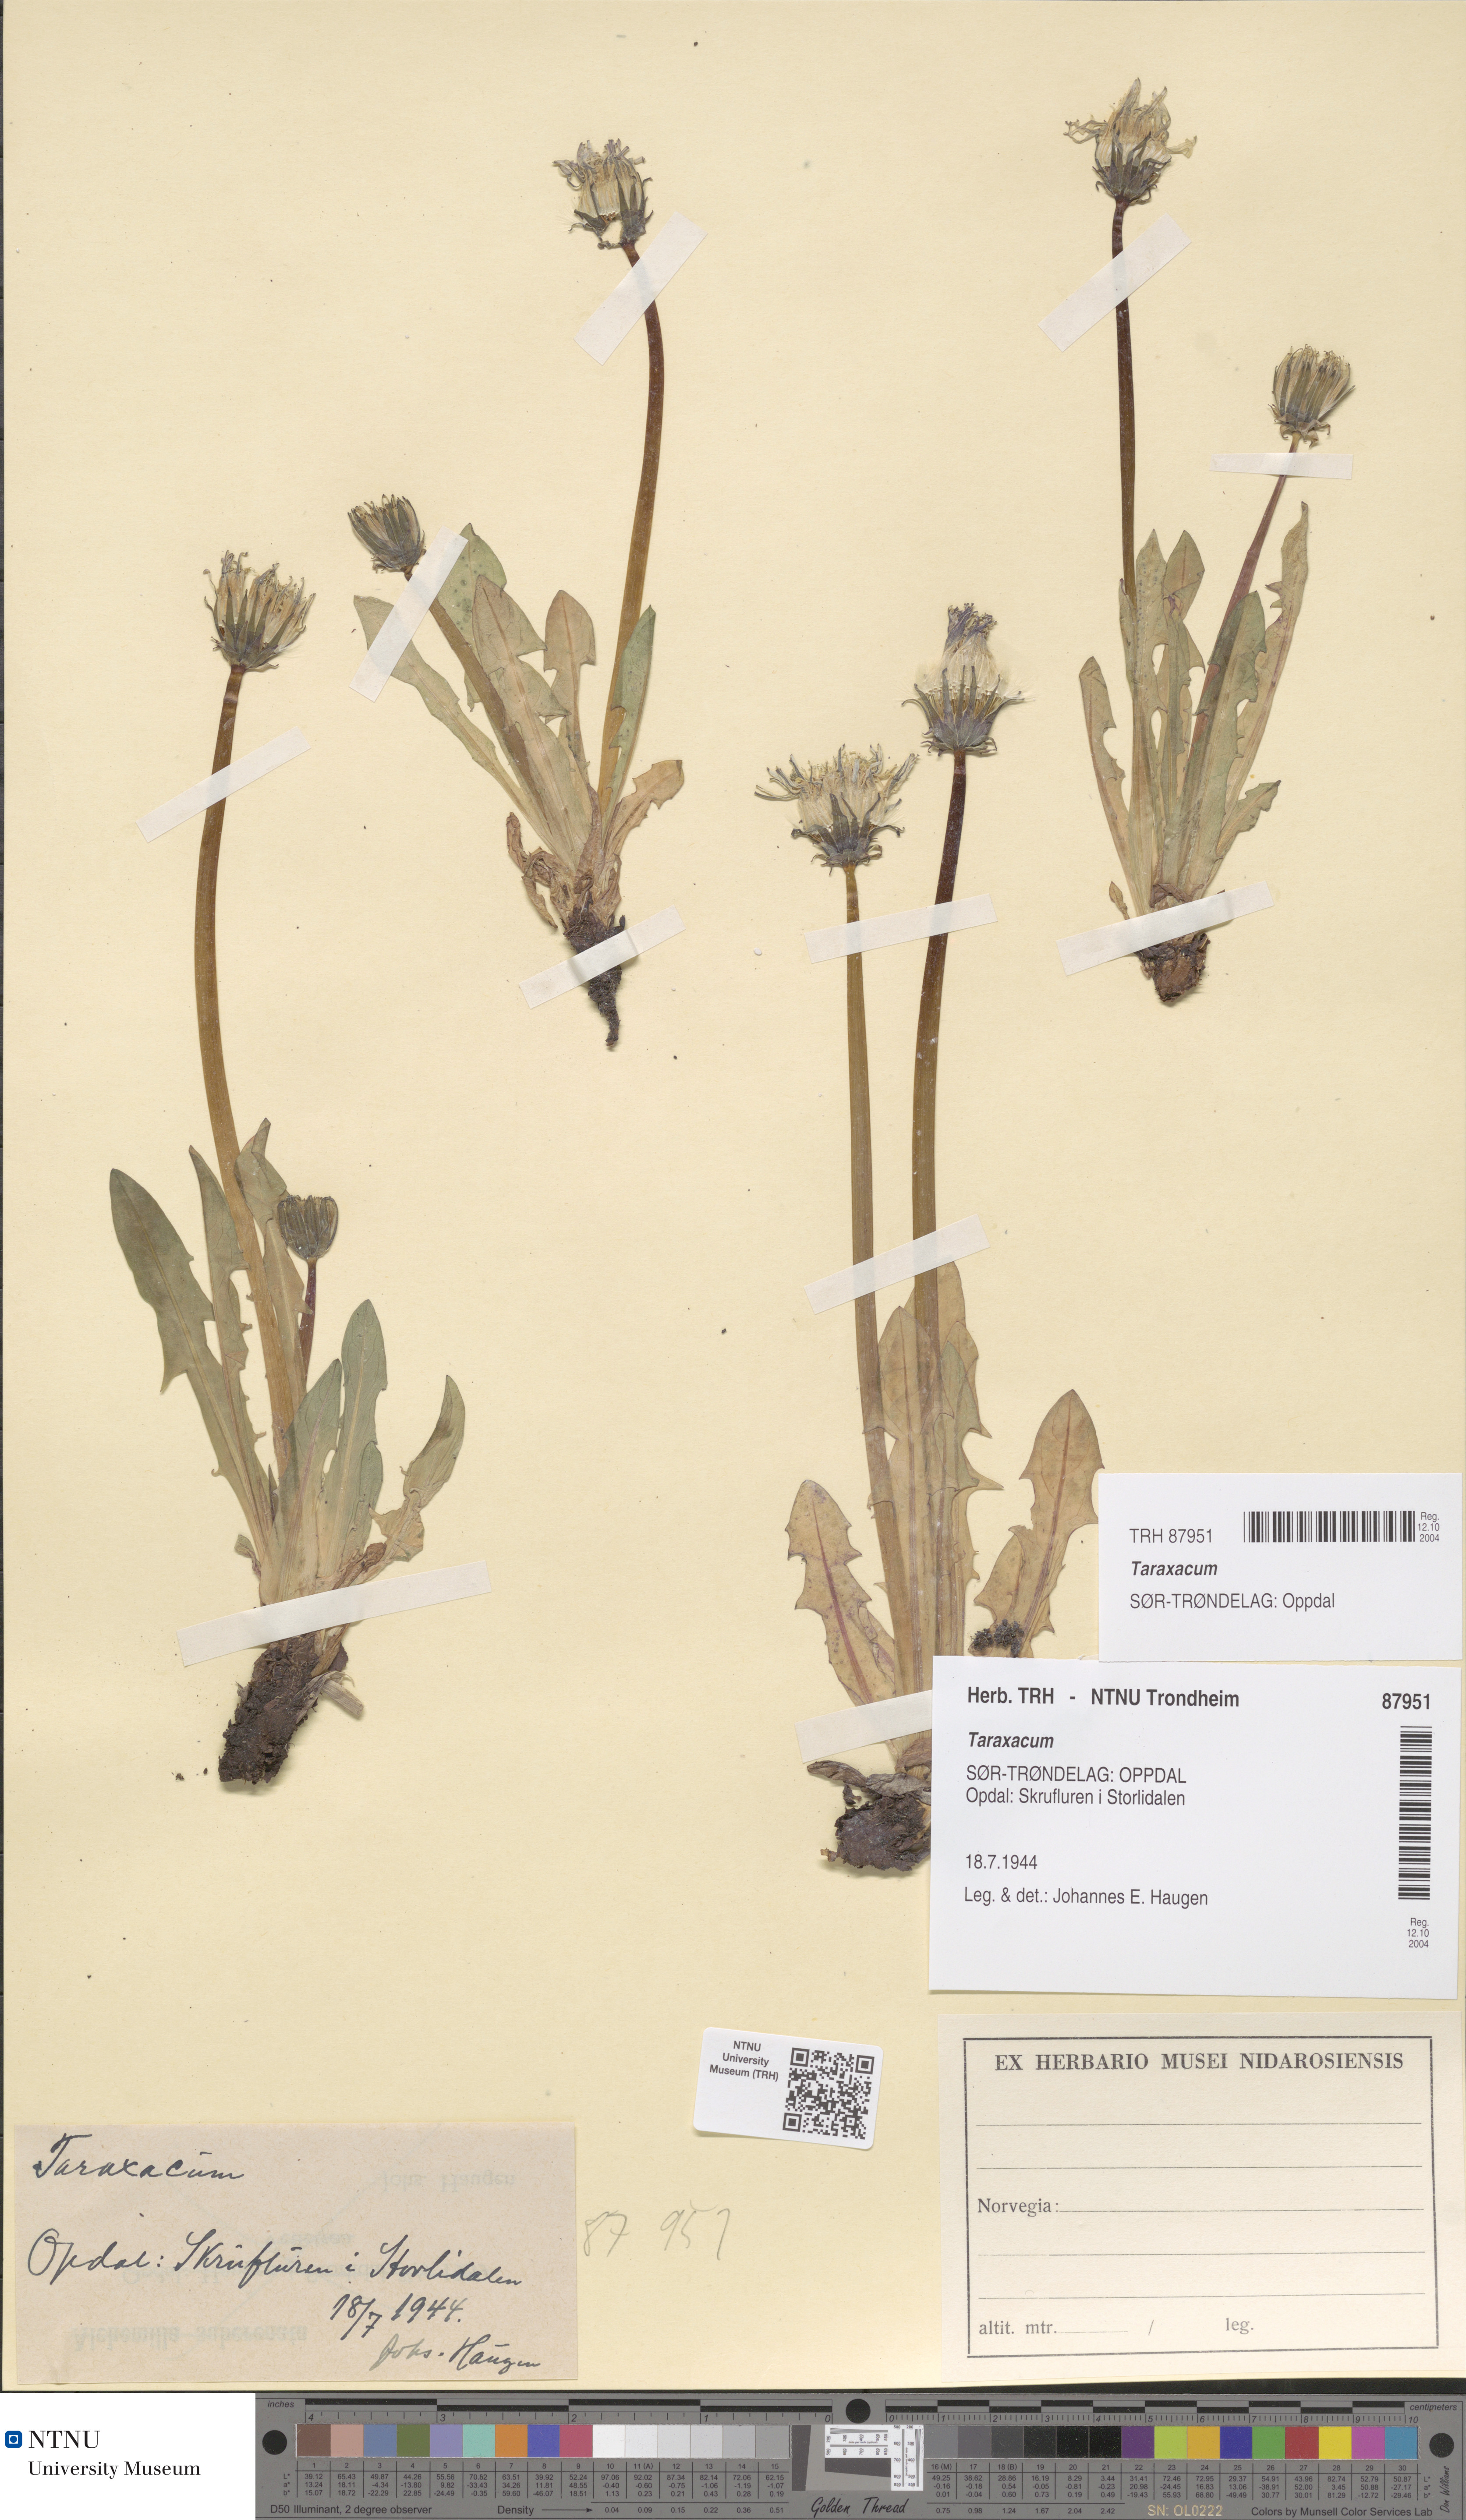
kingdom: Plantae
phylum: Tracheophyta
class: Magnoliopsida
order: Asterales
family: Asteraceae
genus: Taraxacum
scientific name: Taraxacum
